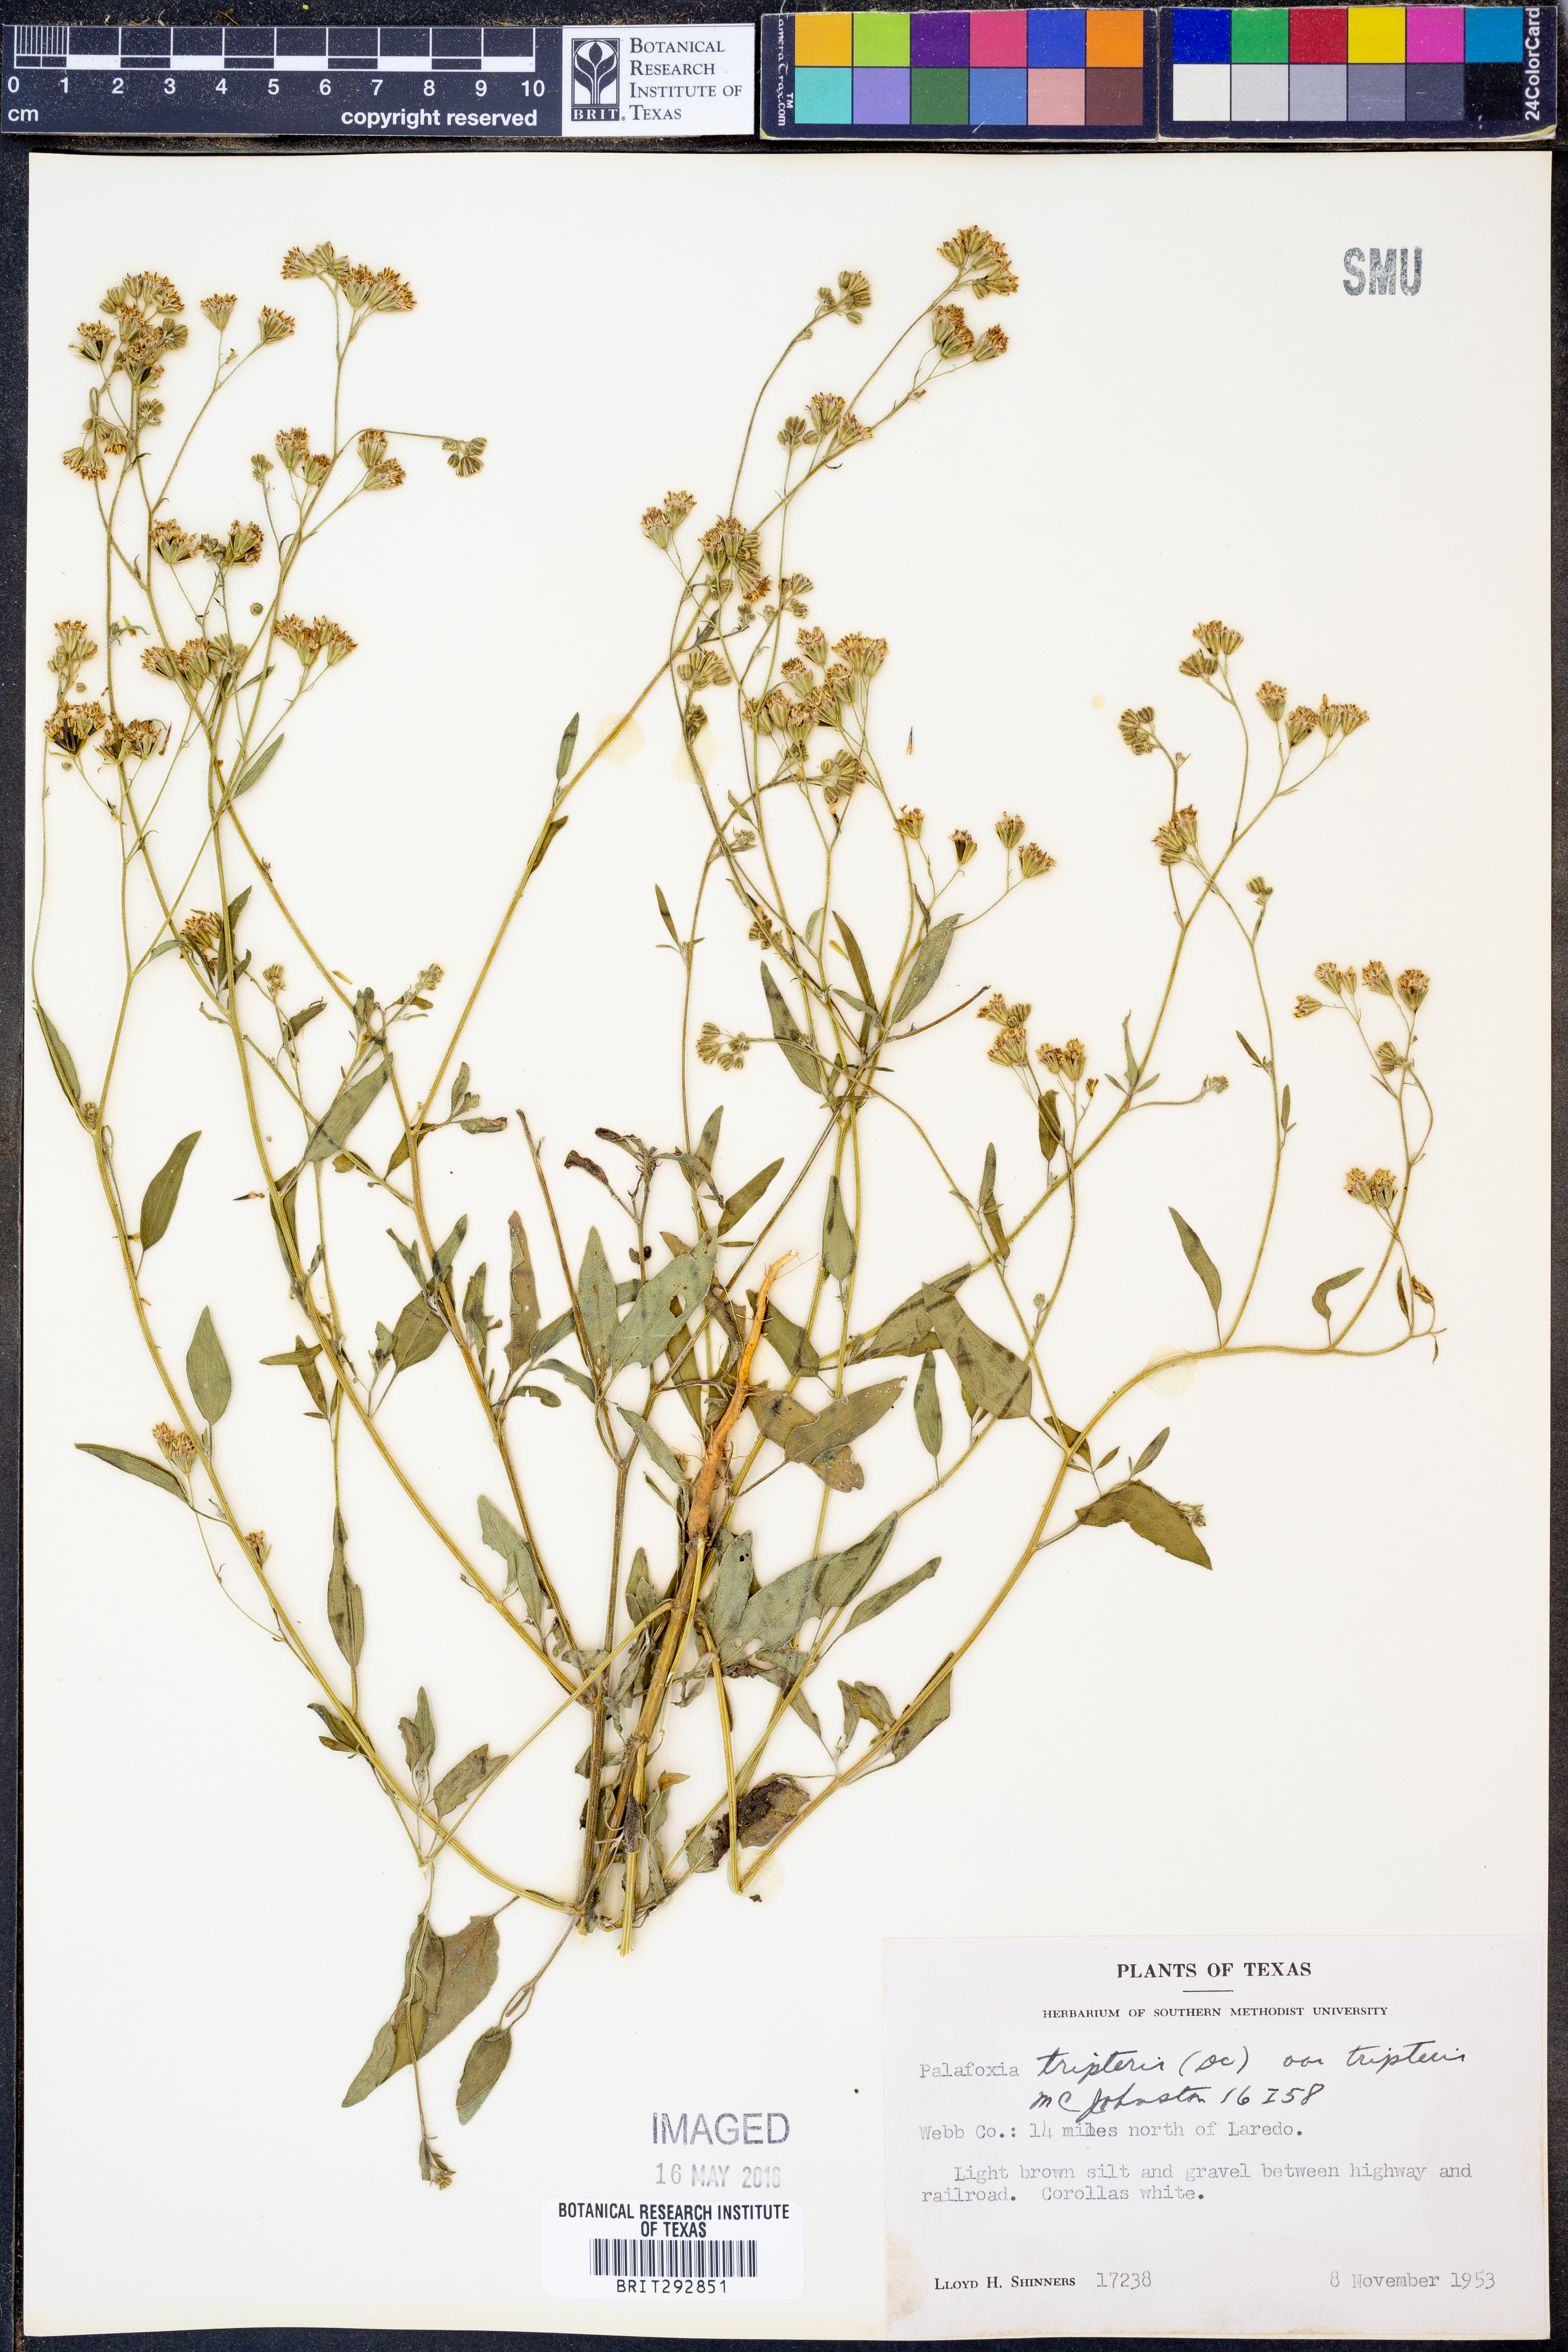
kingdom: Plantae
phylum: Tracheophyta
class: Magnoliopsida
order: Asterales
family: Asteraceae
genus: Florestina
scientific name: Florestina tripteris
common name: Sticky florestina
